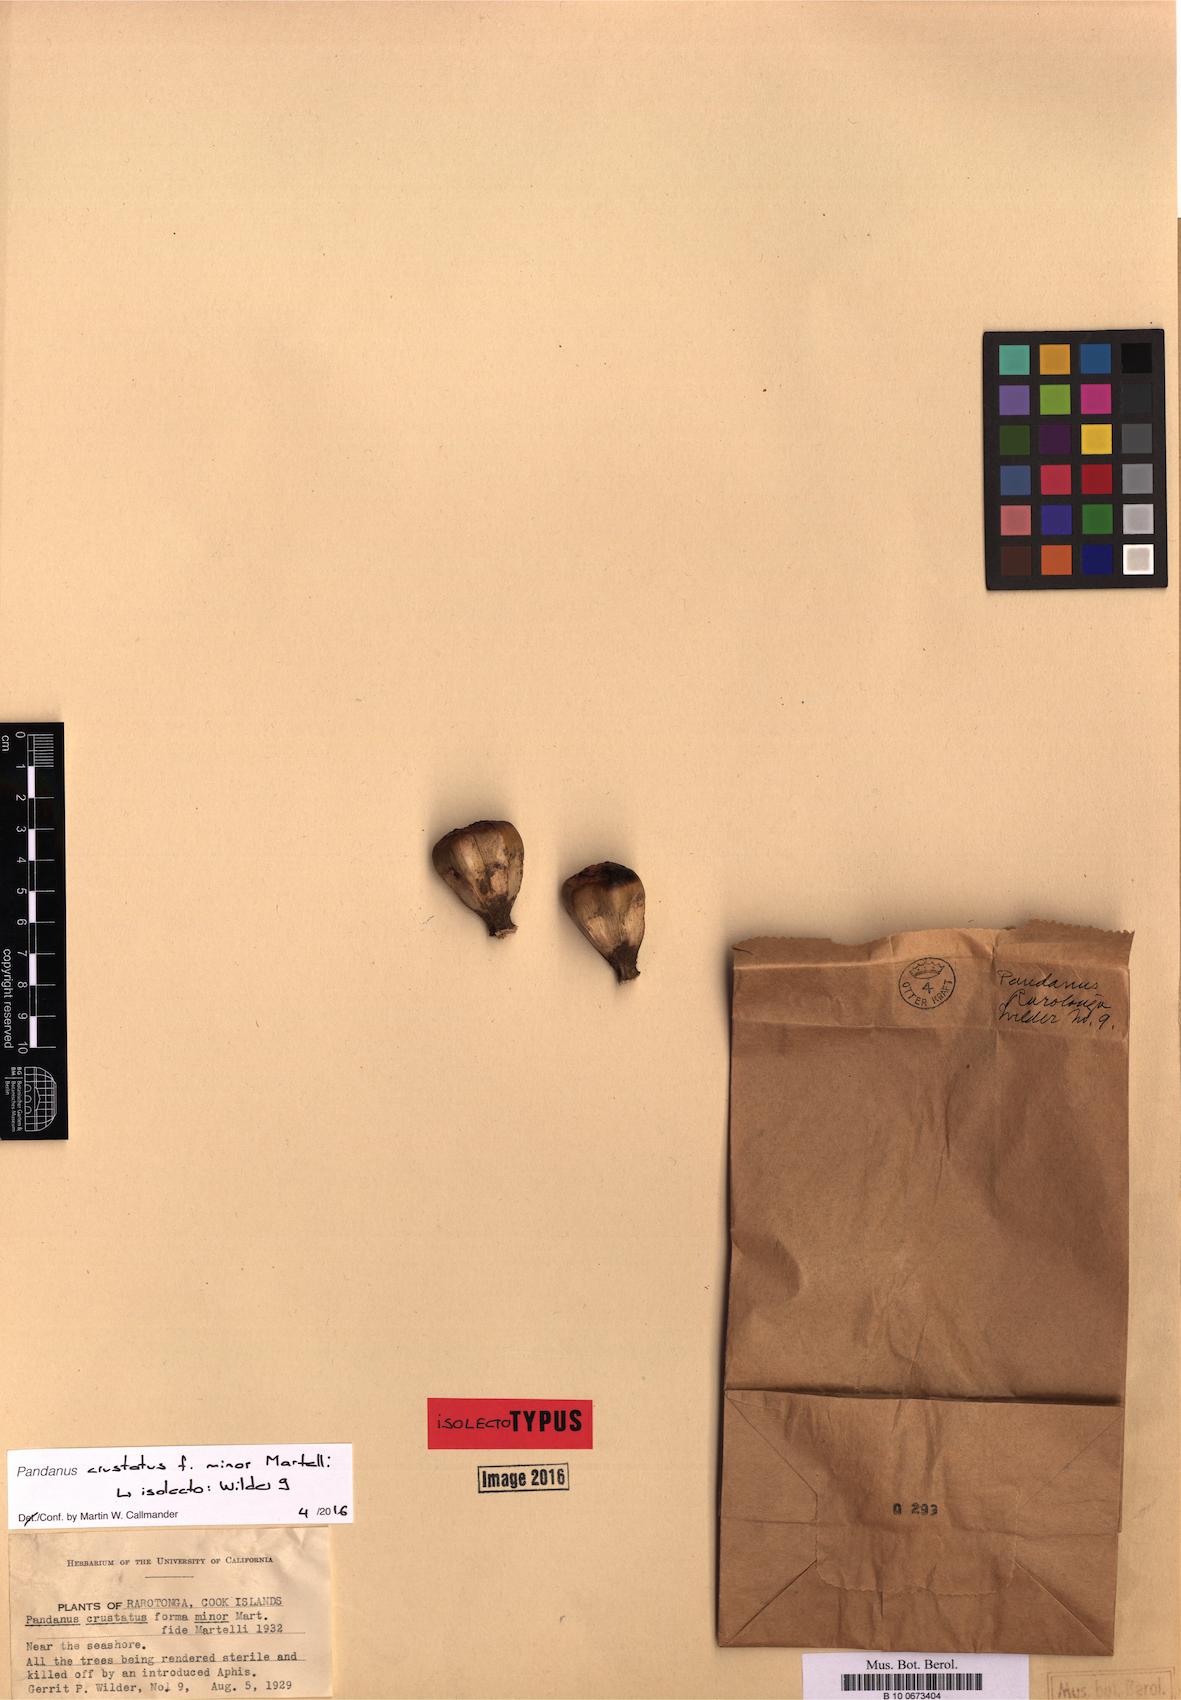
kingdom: Plantae
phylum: Tracheophyta
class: Liliopsida
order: Pandanales
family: Pandanaceae
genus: Pandanus
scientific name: Pandanus tectorius
